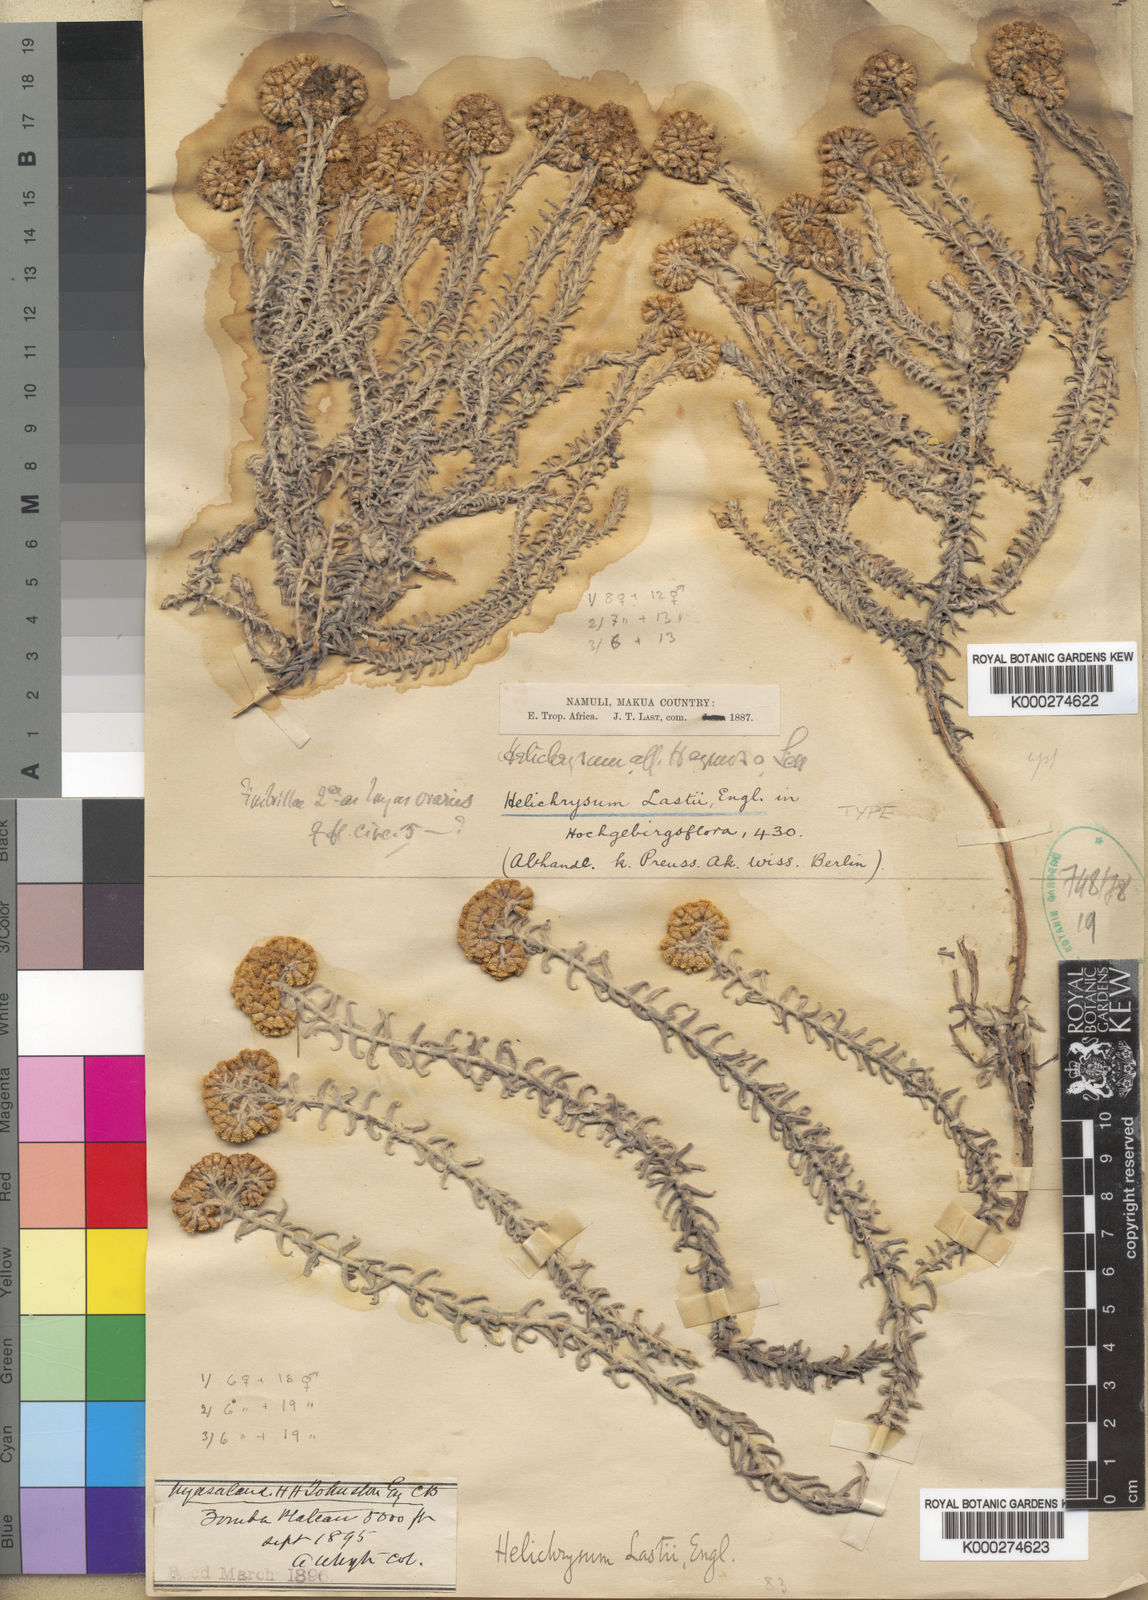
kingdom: Plantae
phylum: Tracheophyta
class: Magnoliopsida
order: Asterales
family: Asteraceae
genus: Helichrysum
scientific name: Helichrysum lastii
